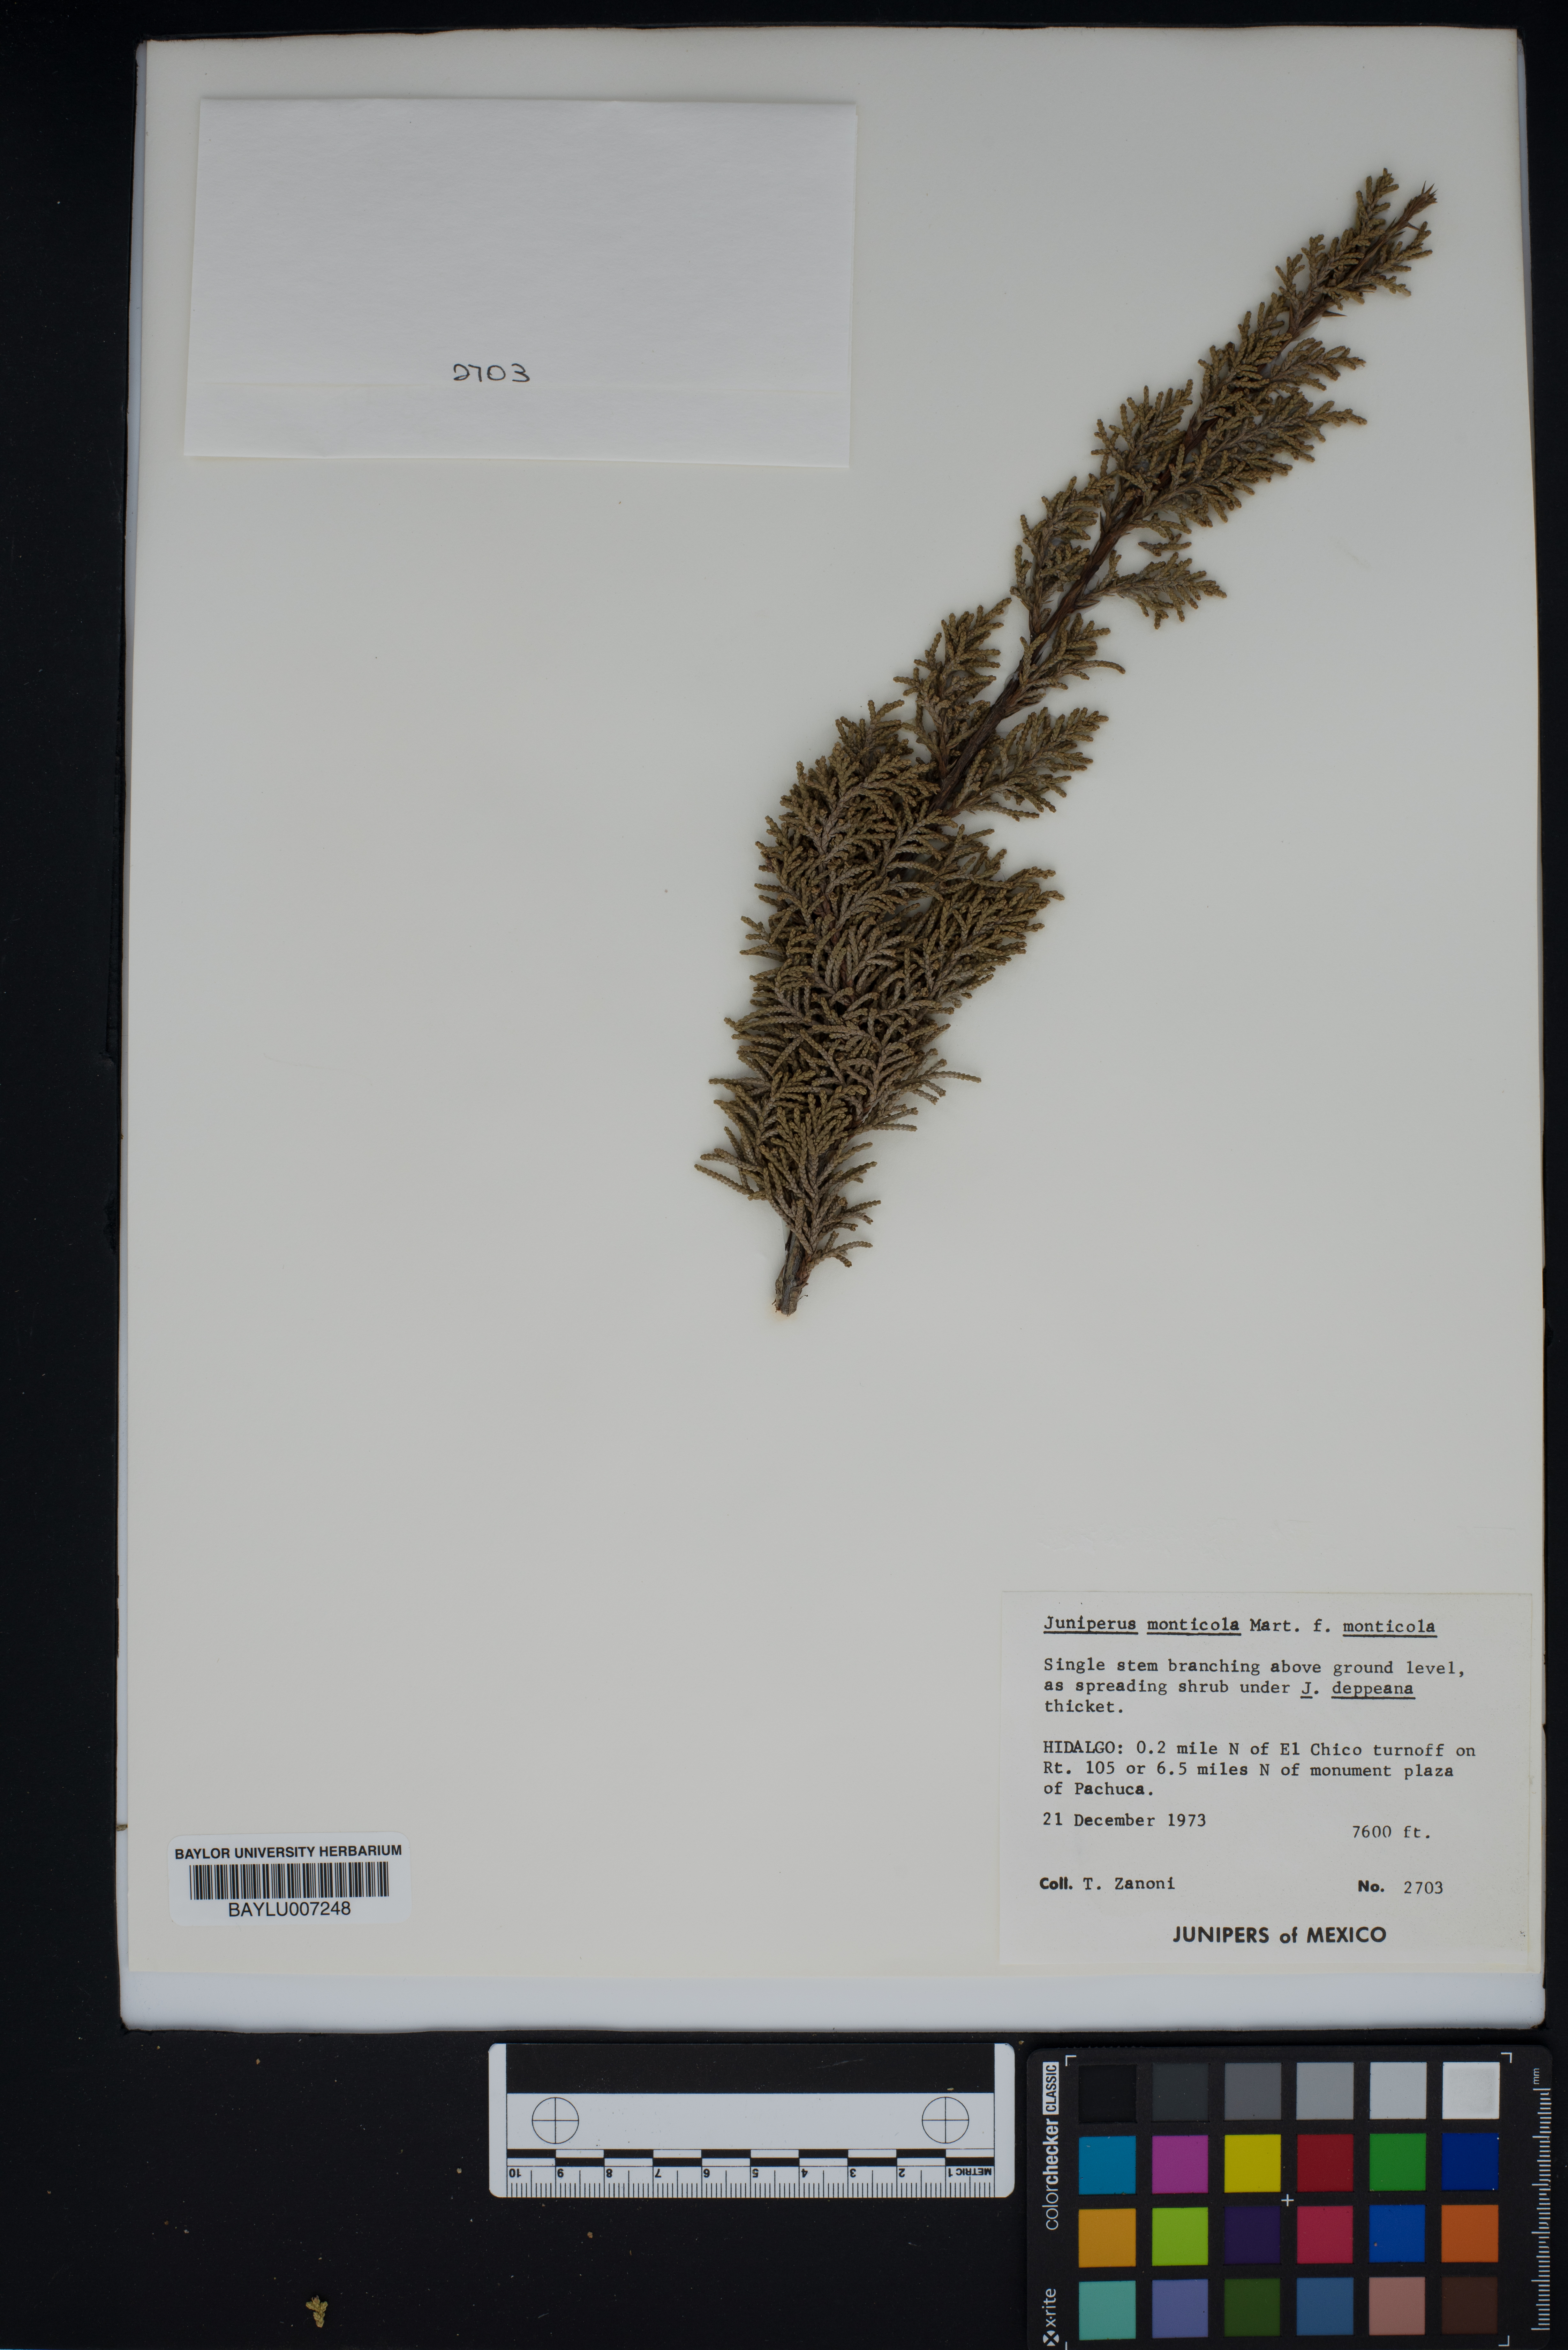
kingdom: Plantae
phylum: Tracheophyta
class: Pinopsida
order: Pinales
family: Cupressaceae
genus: Juniperus
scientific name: Juniperus monticola
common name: Mexican juniper
